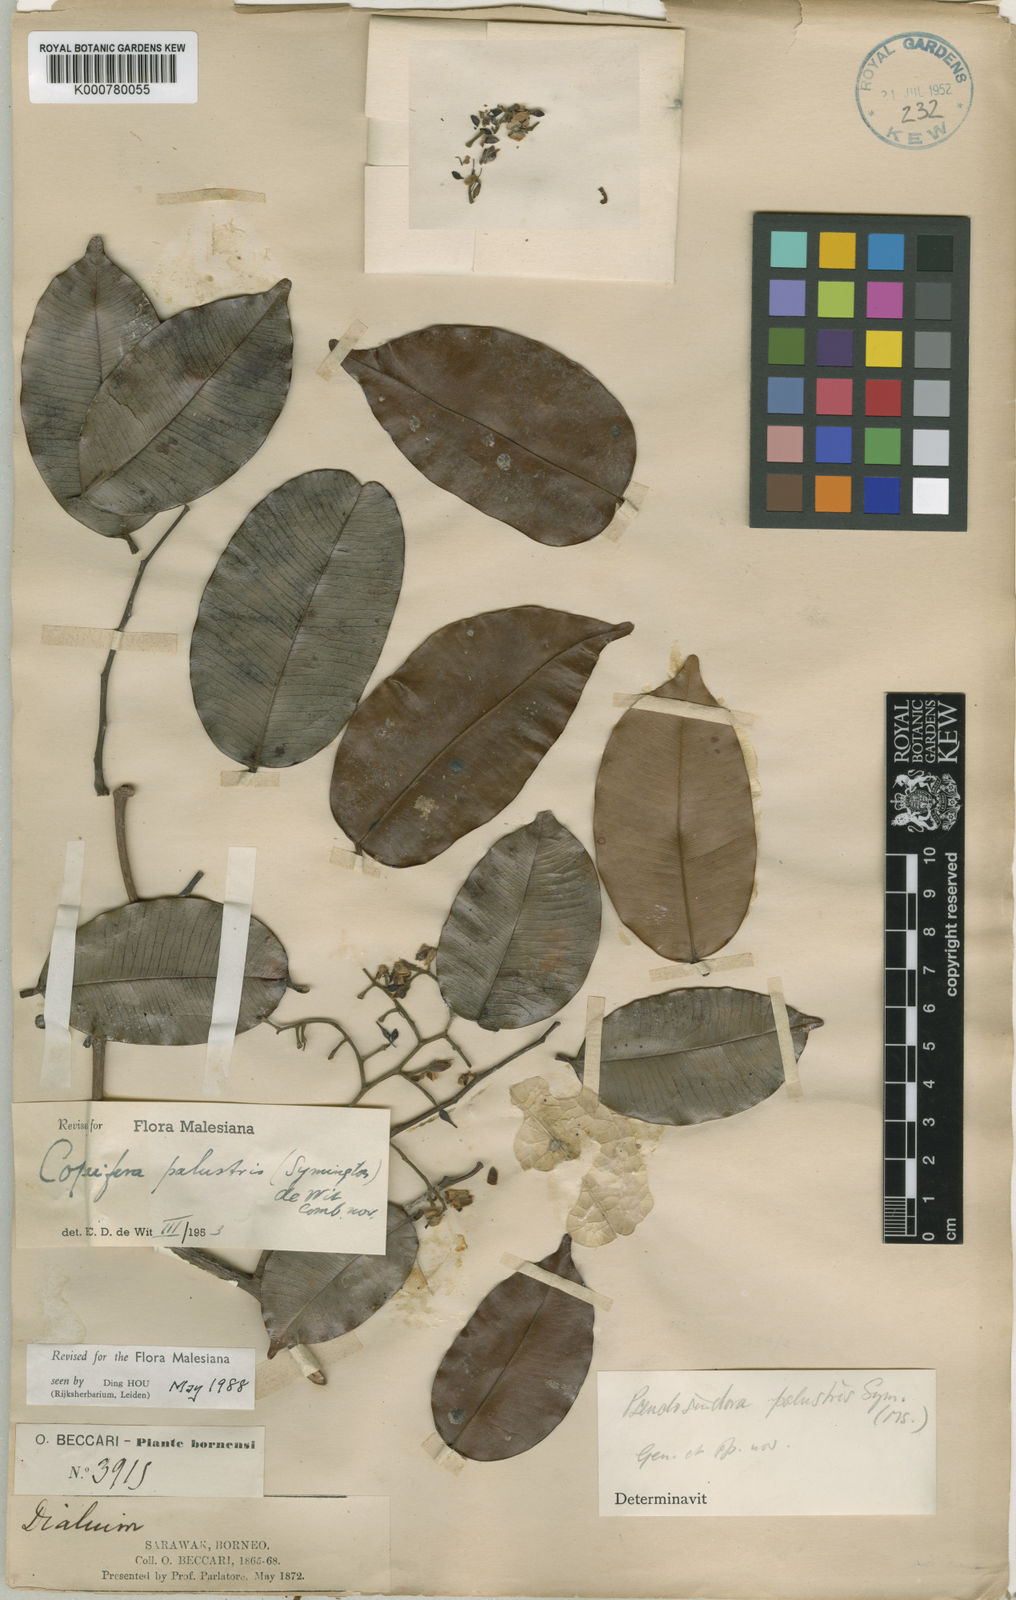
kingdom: Plantae
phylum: Tracheophyta
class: Magnoliopsida
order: Fabales
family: Fabaceae
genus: Copaifera
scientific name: Copaifera palustris
